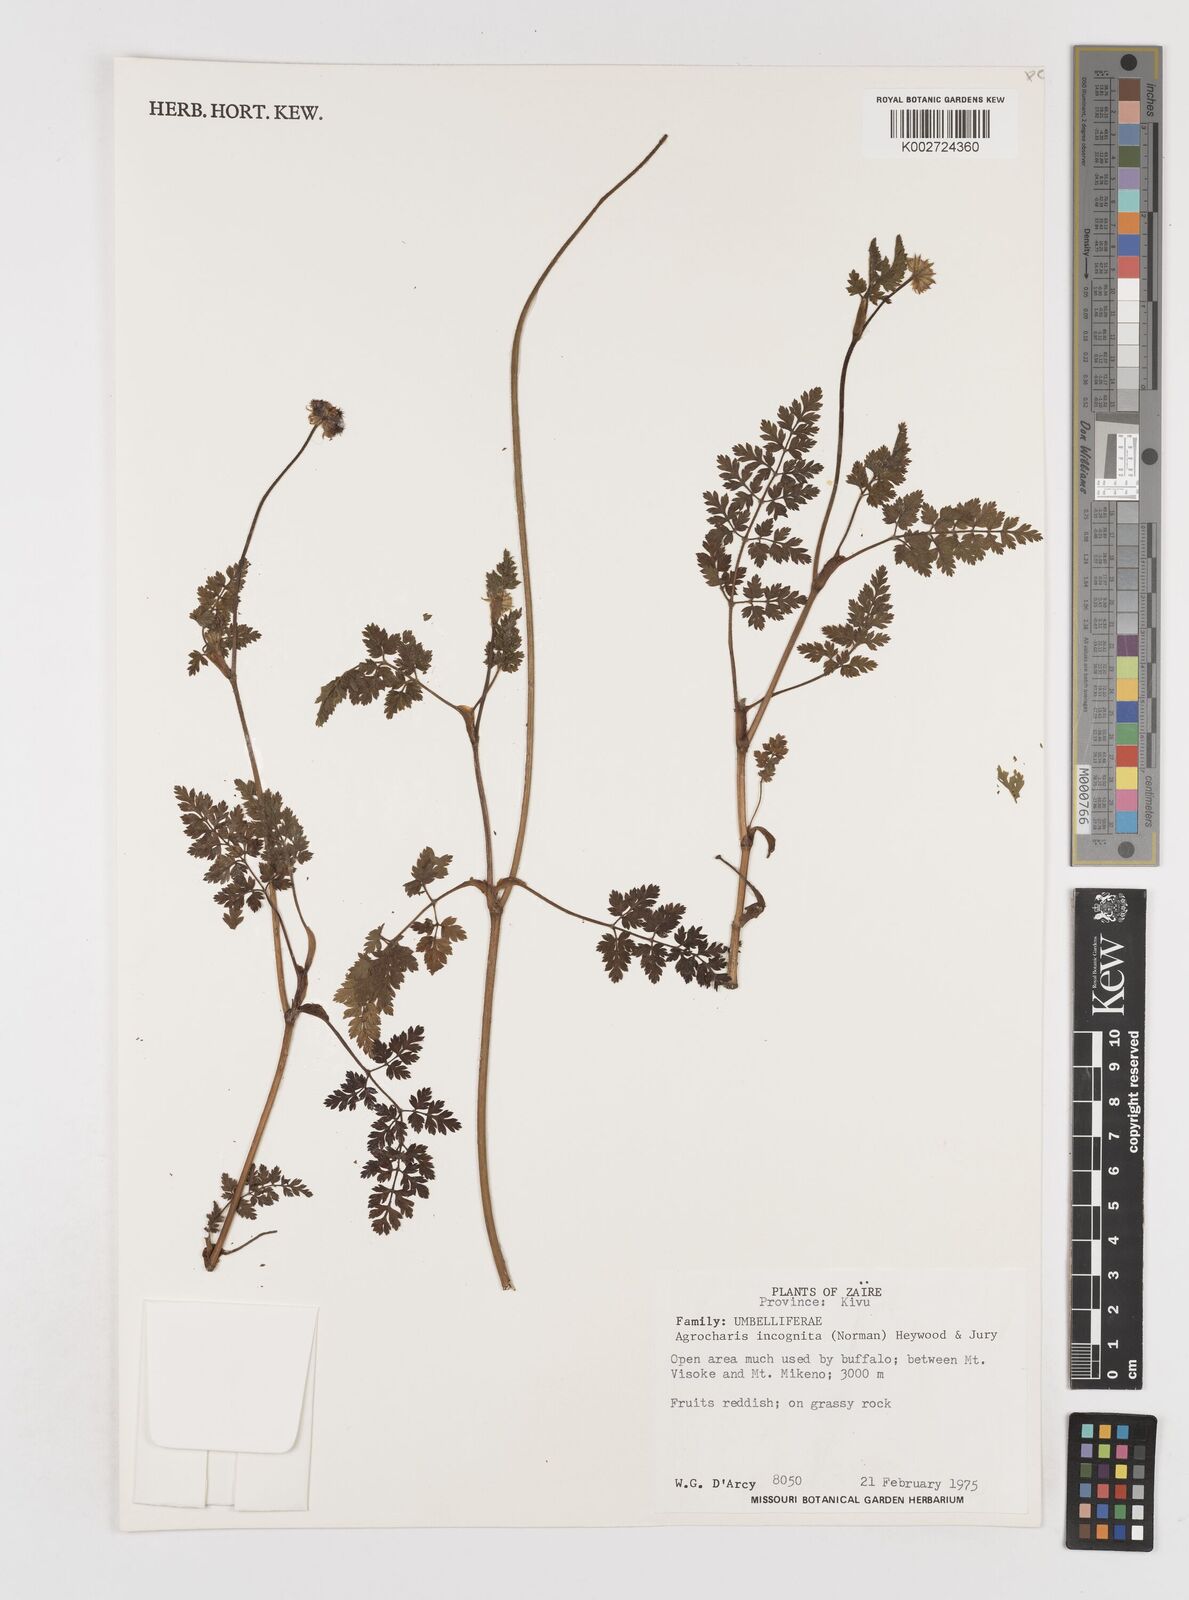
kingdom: Plantae
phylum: Tracheophyta
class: Magnoliopsida
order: Apiales
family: Apiaceae
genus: Daucus
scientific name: Daucus incognitus
